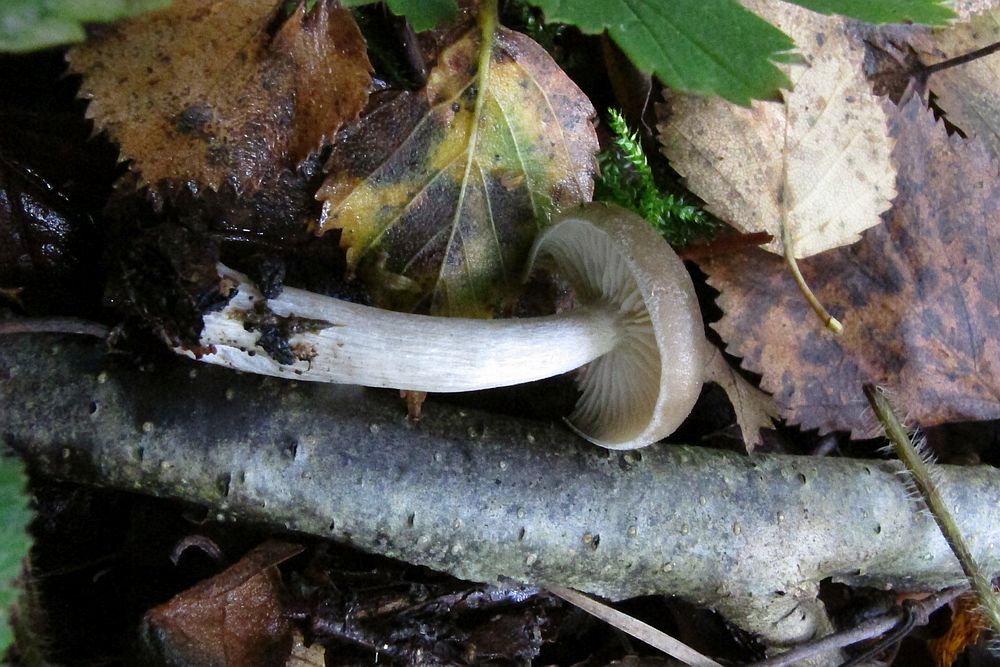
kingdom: Fungi
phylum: Basidiomycota
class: Agaricomycetes
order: Agaricales
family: Entolomataceae
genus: Entoloma
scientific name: Entoloma
